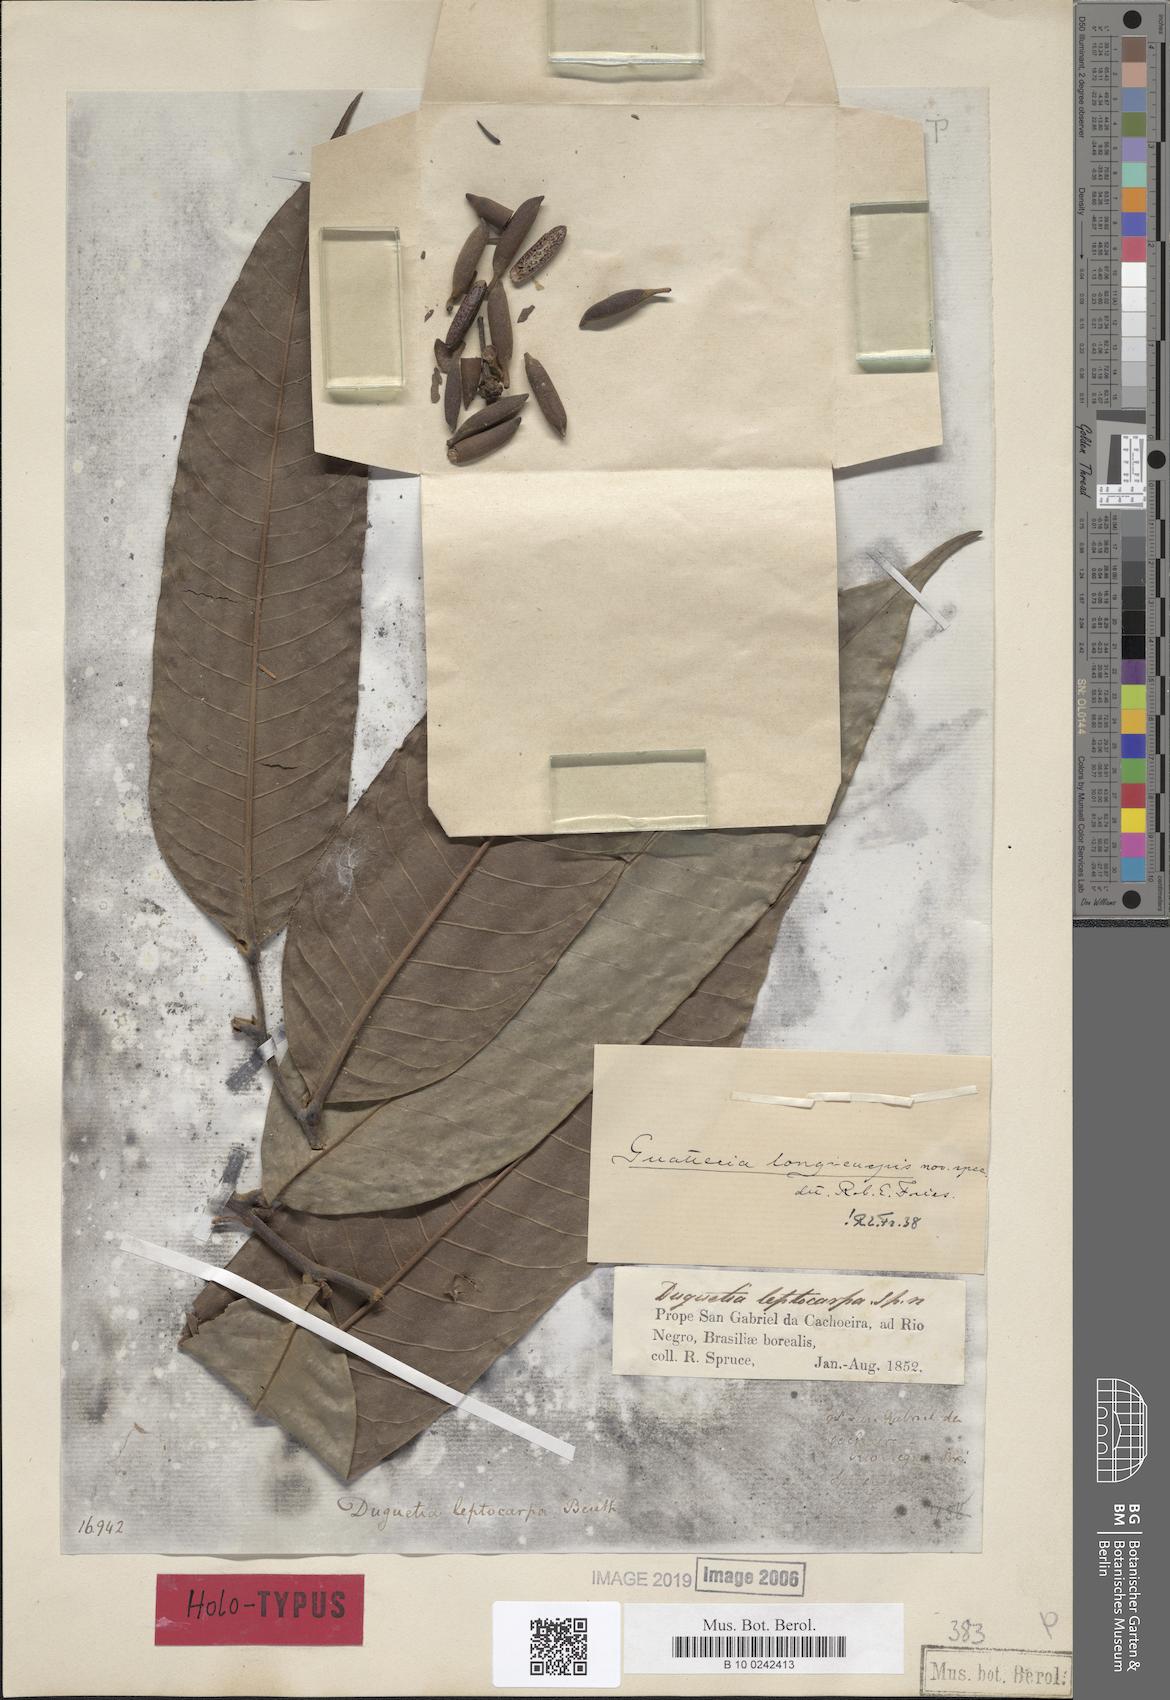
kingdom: Plantae
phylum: Tracheophyta
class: Magnoliopsida
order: Magnoliales
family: Annonaceae
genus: Guatteria
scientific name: Guatteria longicuspis
